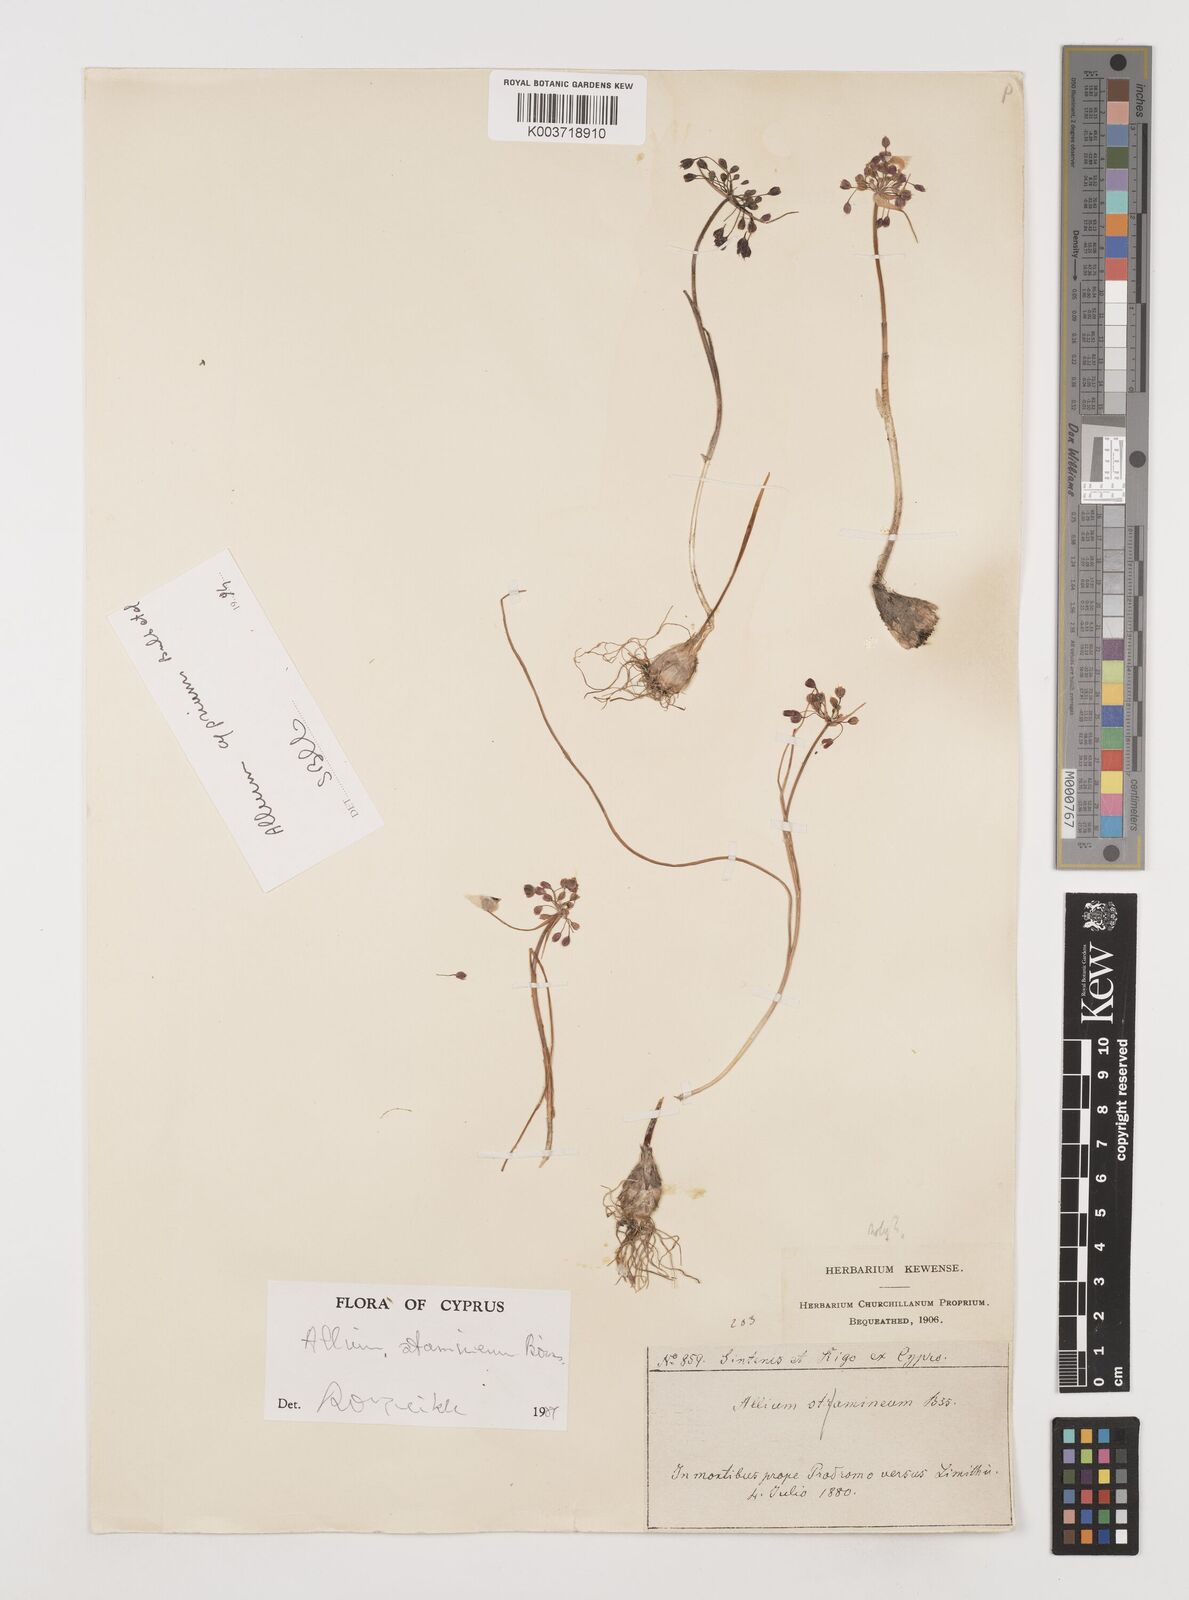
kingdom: Plantae
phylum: Tracheophyta
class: Liliopsida
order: Asparagales
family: Amaryllidaceae
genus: Allium
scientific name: Allium stamineum
